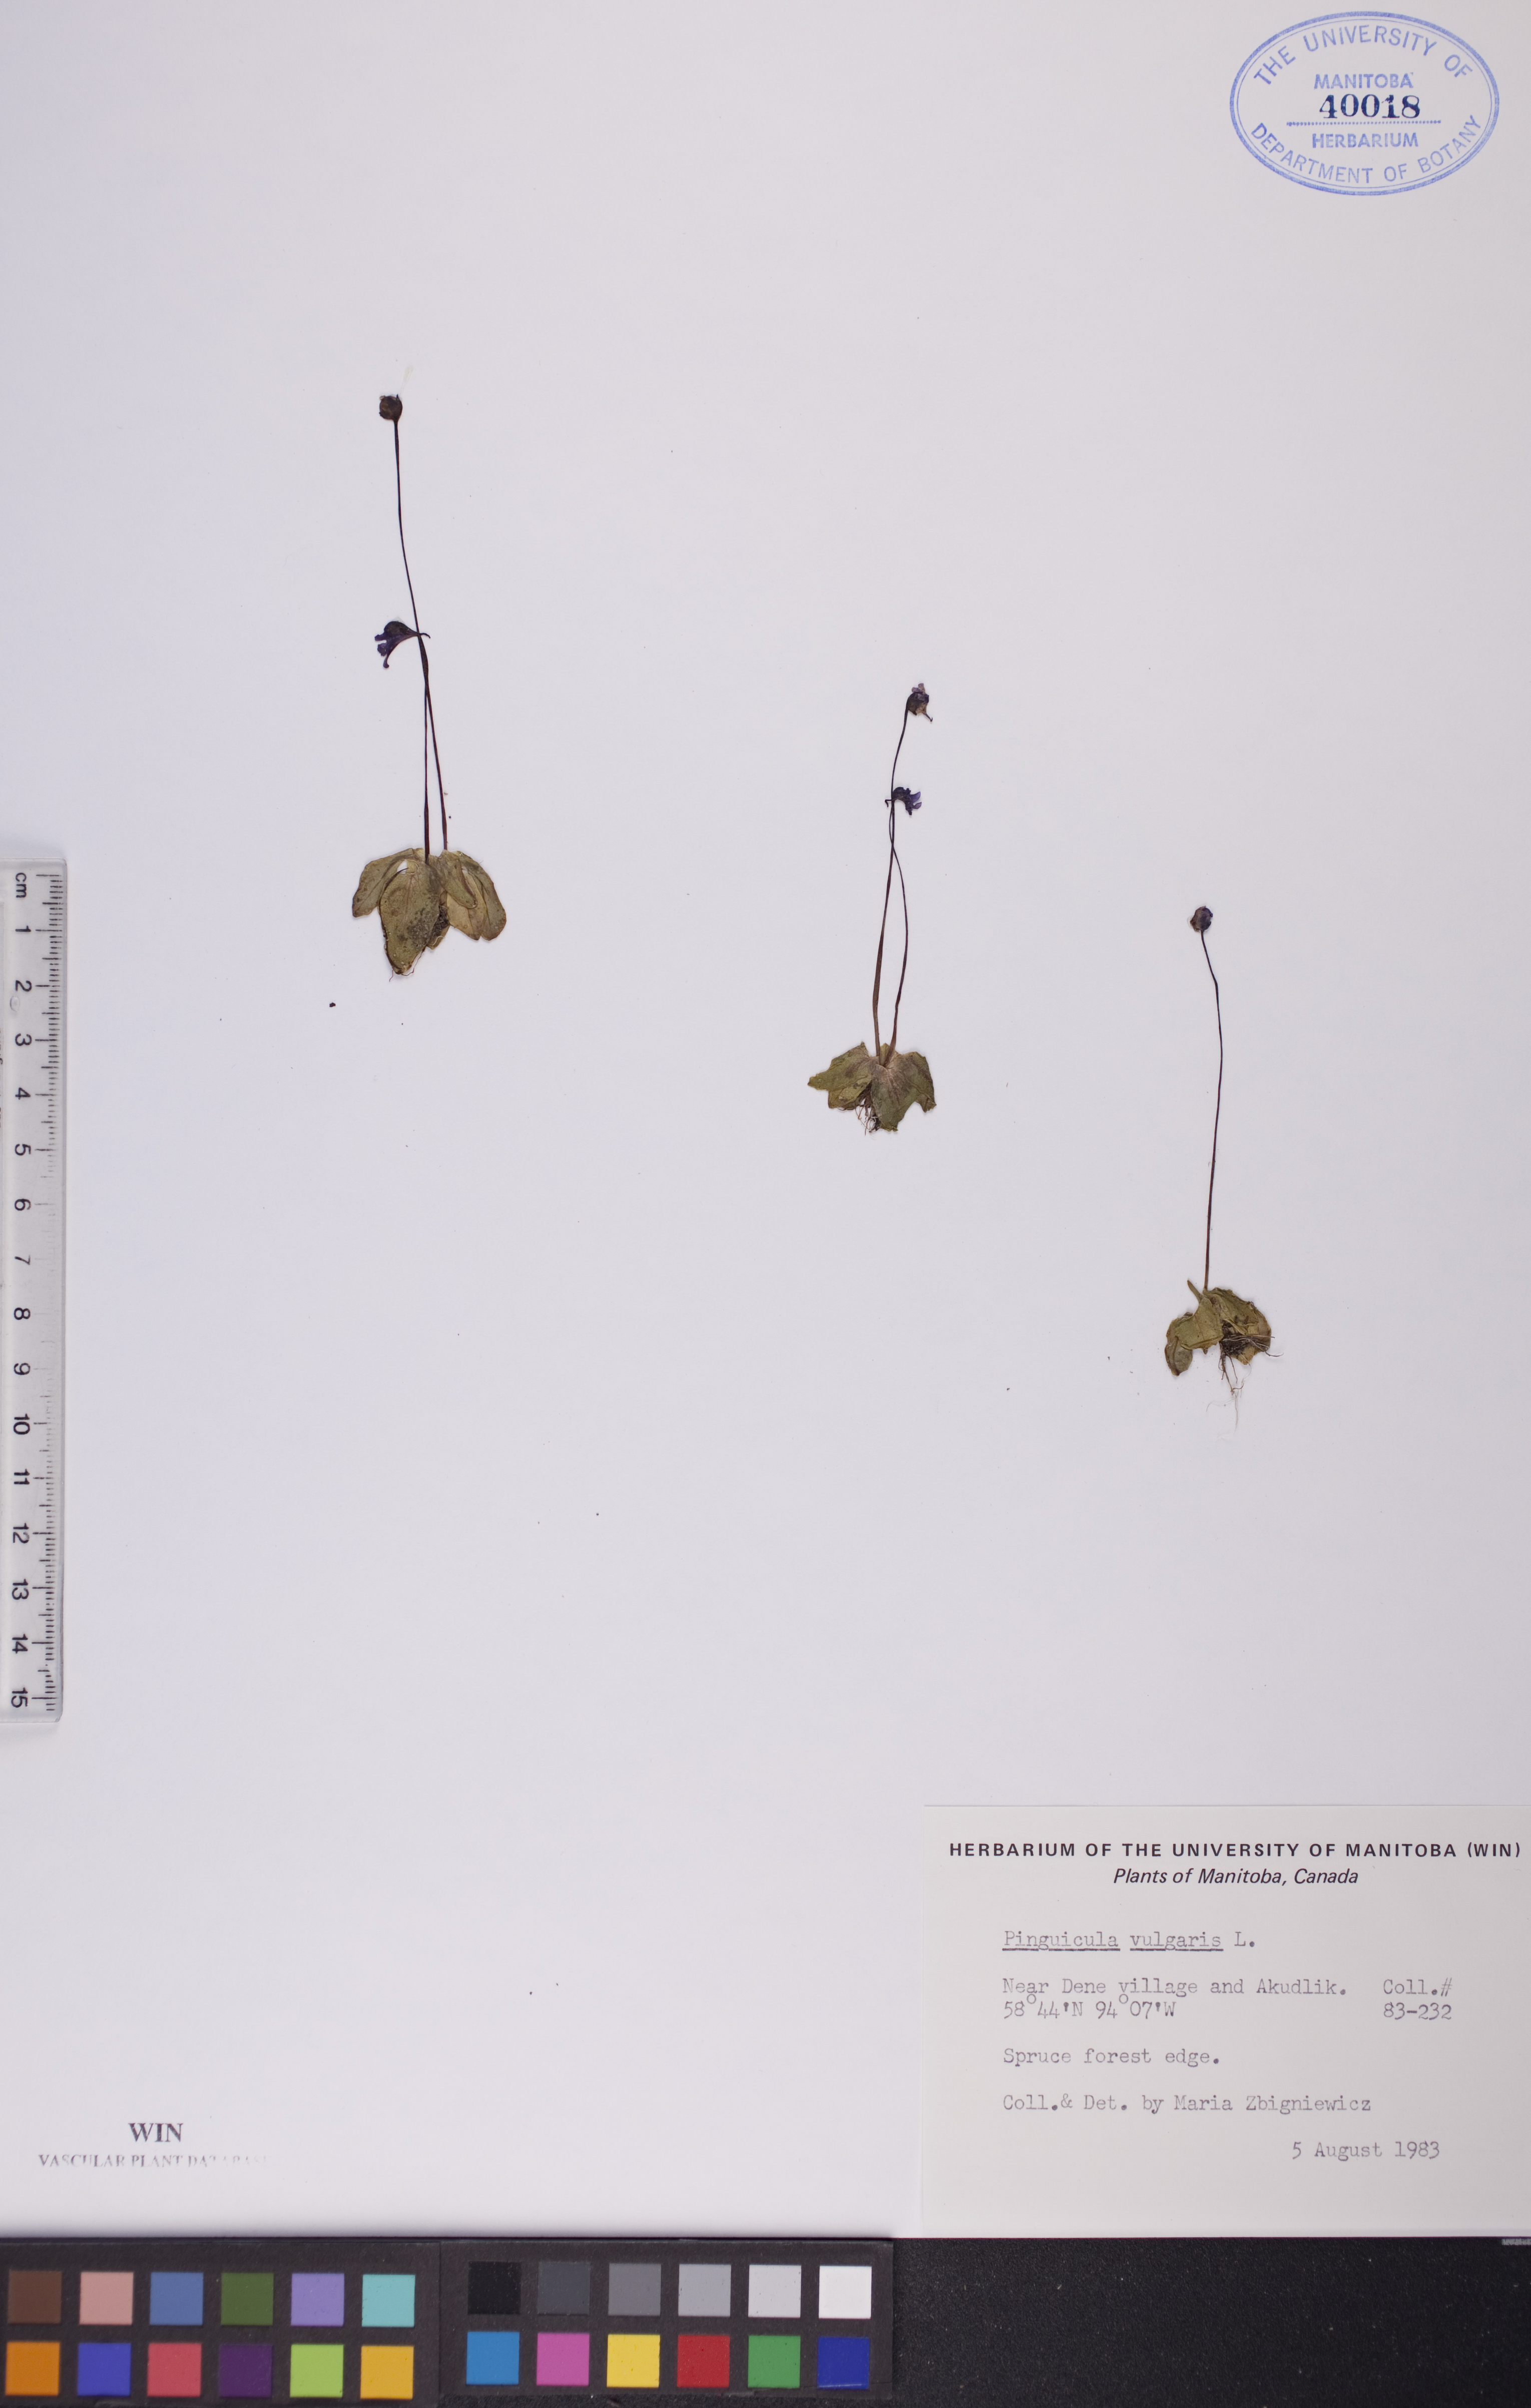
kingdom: Plantae
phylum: Tracheophyta
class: Magnoliopsida
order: Lamiales
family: Lentibulariaceae
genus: Pinguicula
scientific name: Pinguicula vulgaris
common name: Common butterwort
